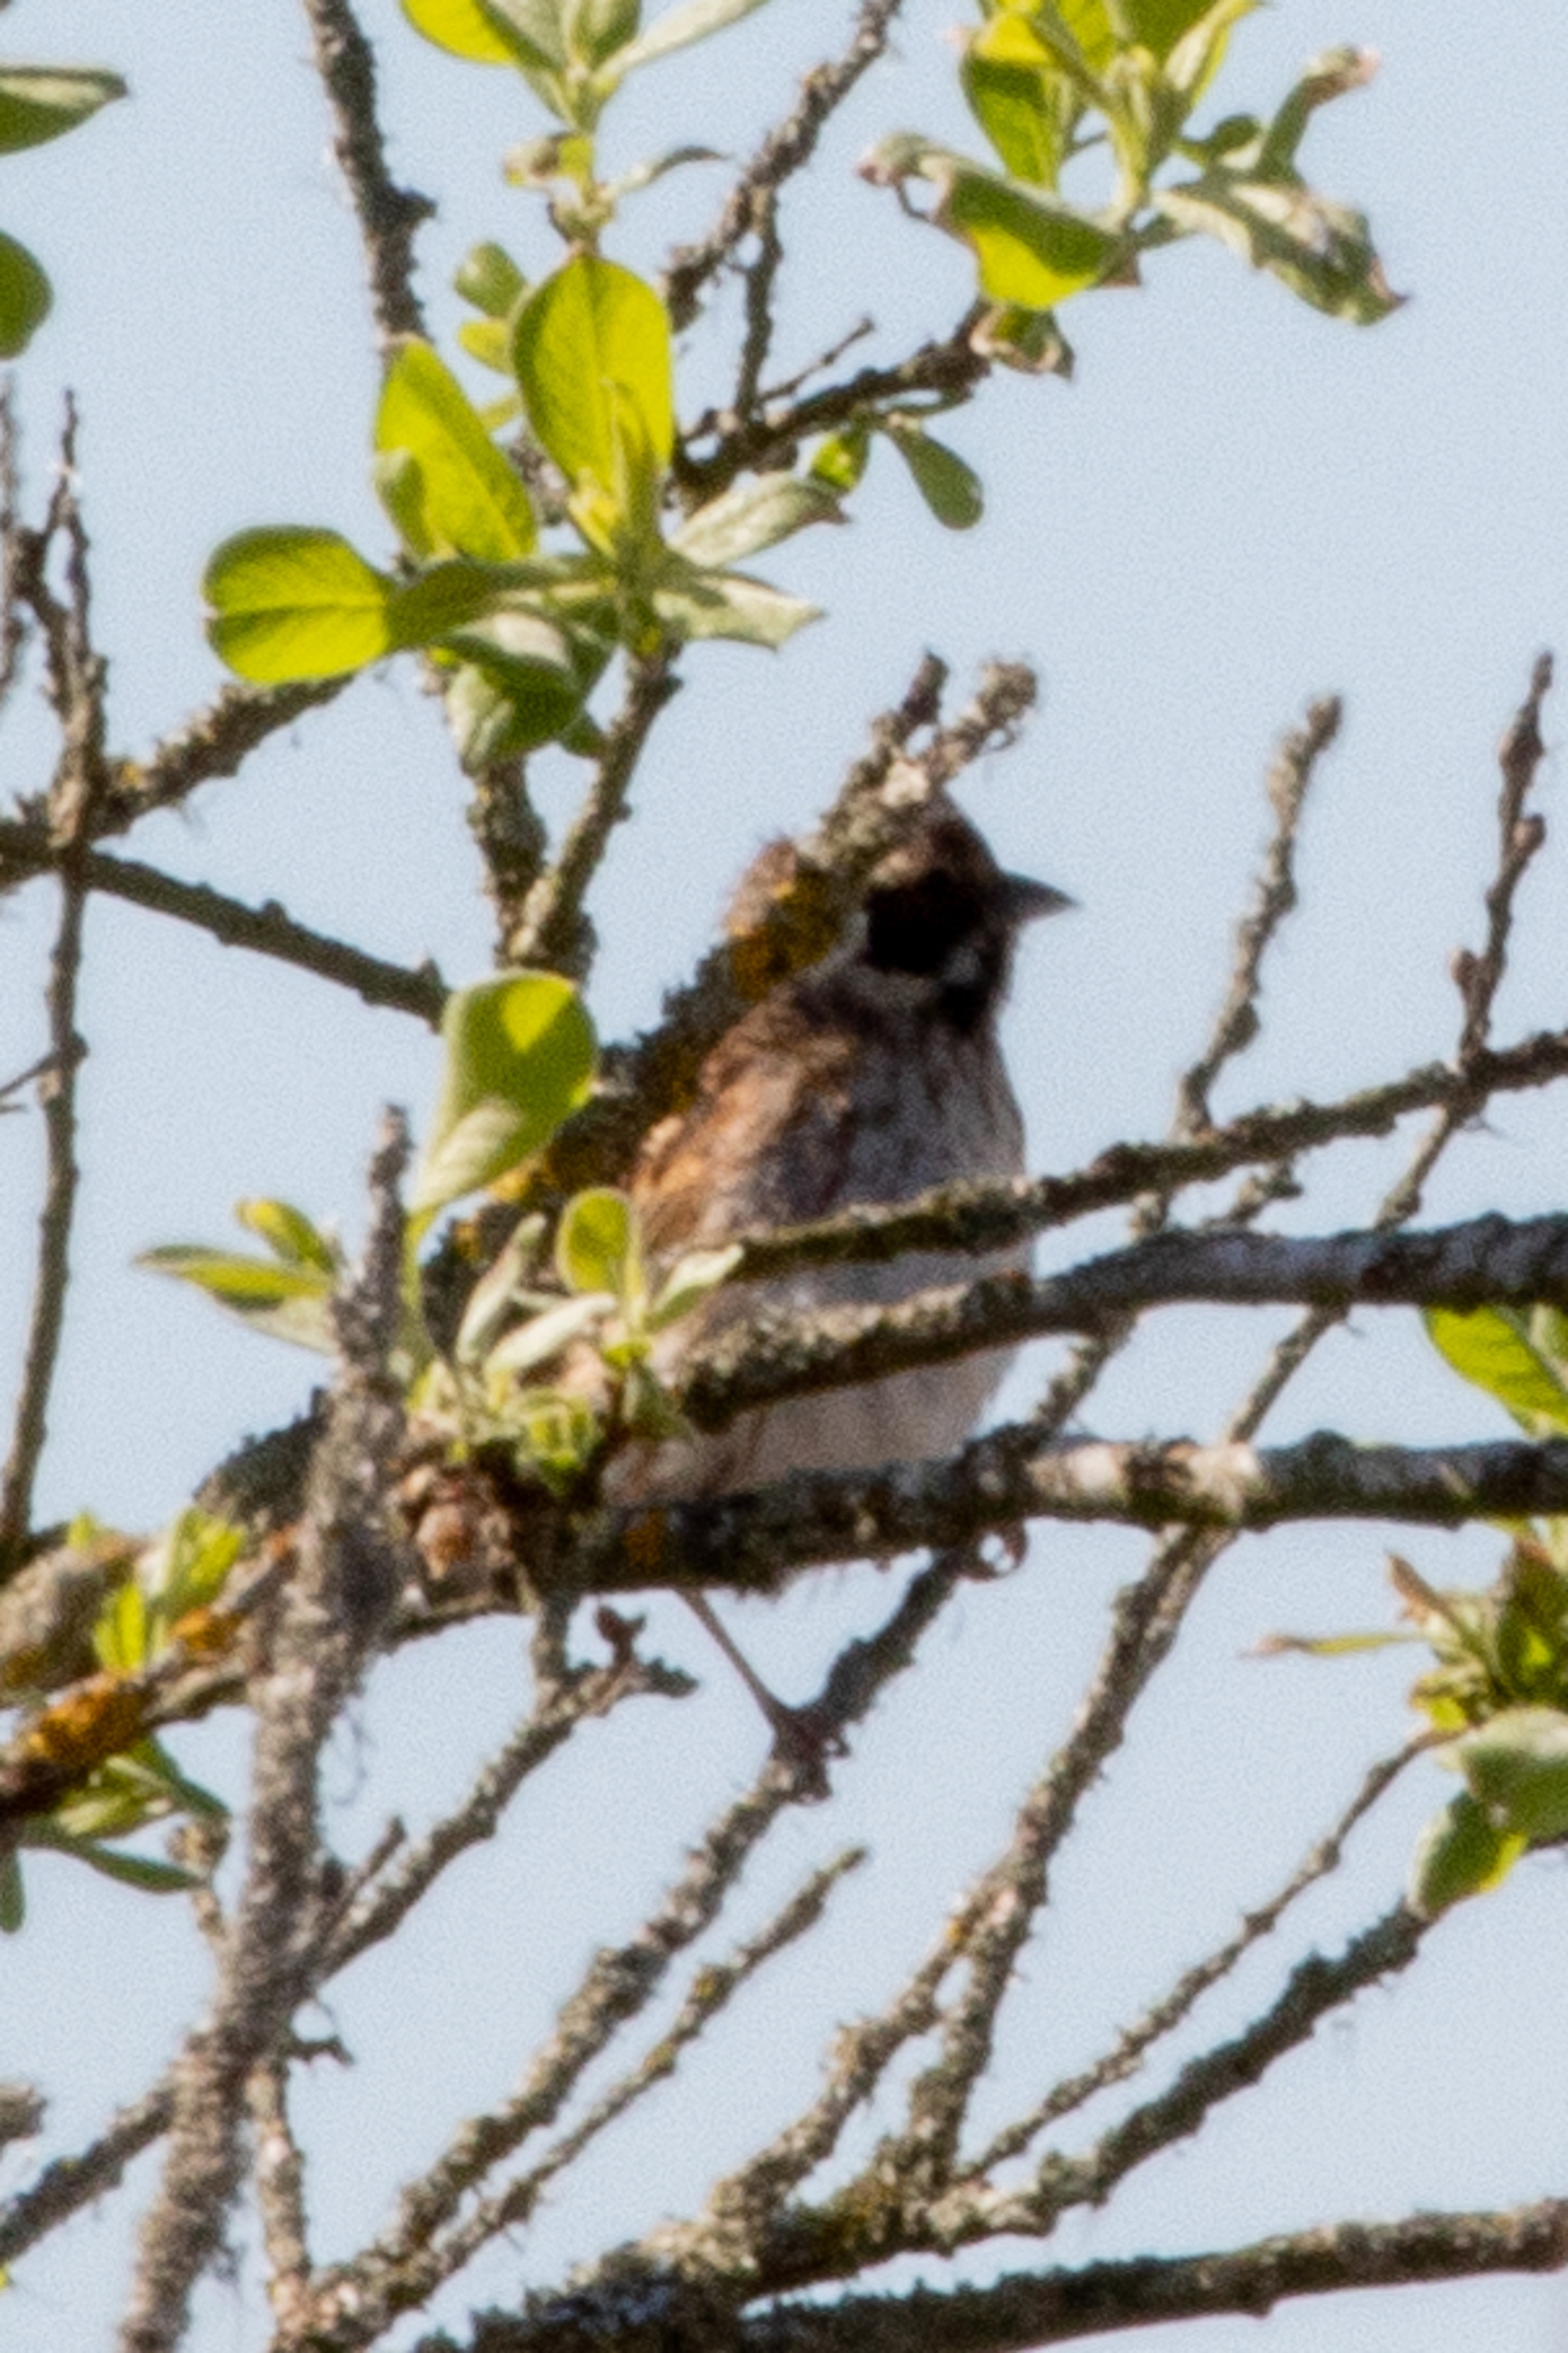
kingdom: Animalia
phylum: Chordata
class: Aves
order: Passeriformes
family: Emberizidae
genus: Emberiza
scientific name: Emberiza schoeniclus
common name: Rørspurv
